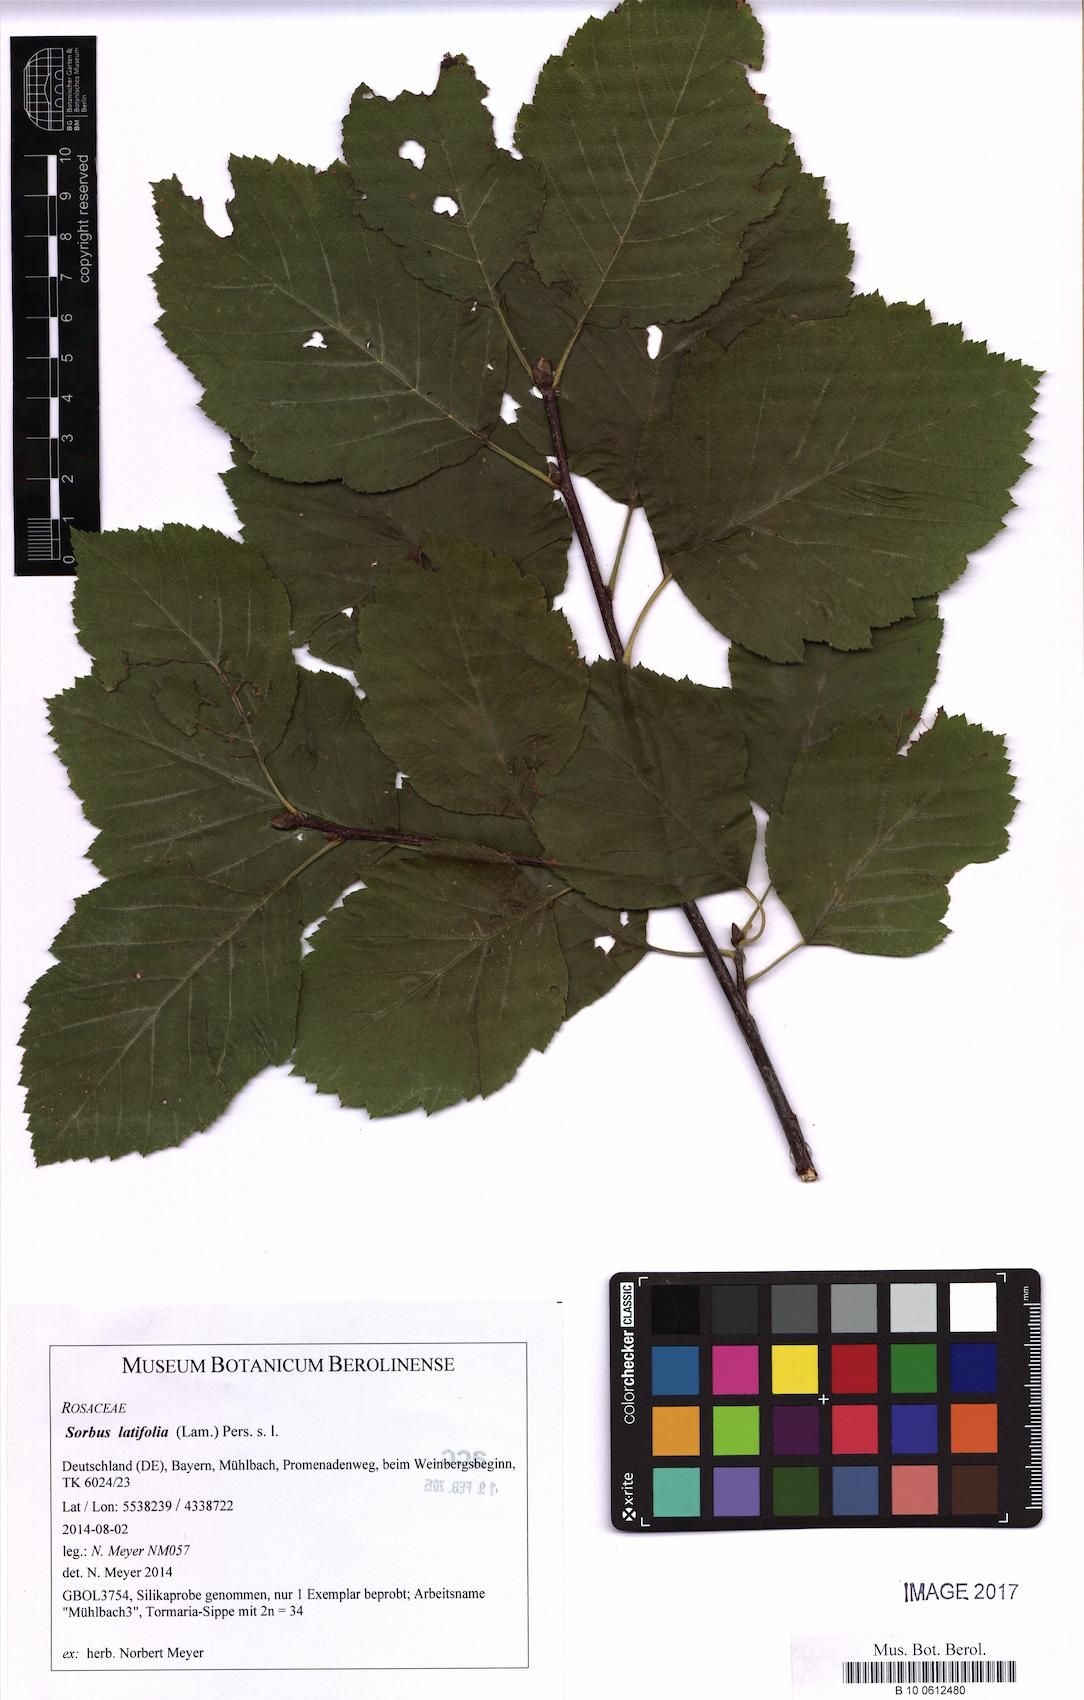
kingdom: Plantae
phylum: Tracheophyta
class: Magnoliopsida
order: Rosales
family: Rosaceae
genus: Karpatiosorbus
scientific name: Karpatiosorbus latifolia
